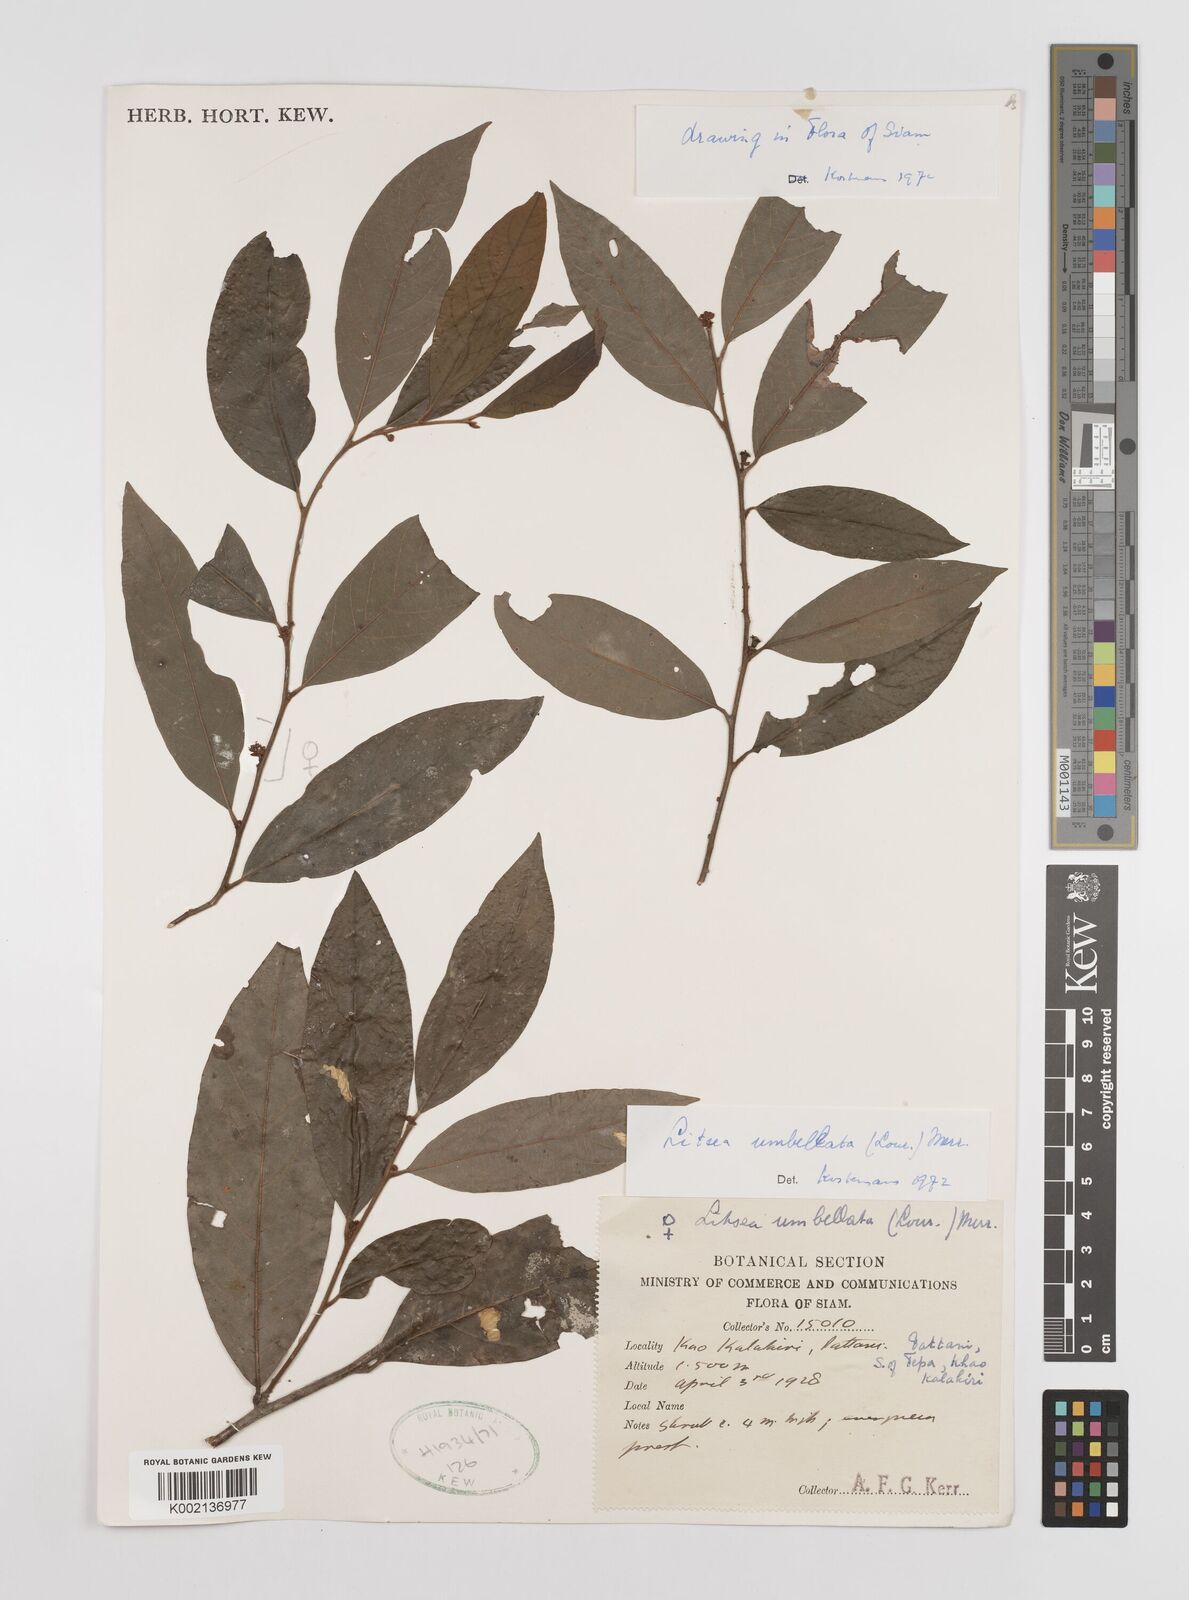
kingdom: Plantae
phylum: Tracheophyta
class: Magnoliopsida
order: Laurales
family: Lauraceae
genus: Litsea
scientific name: Litsea umbellata
